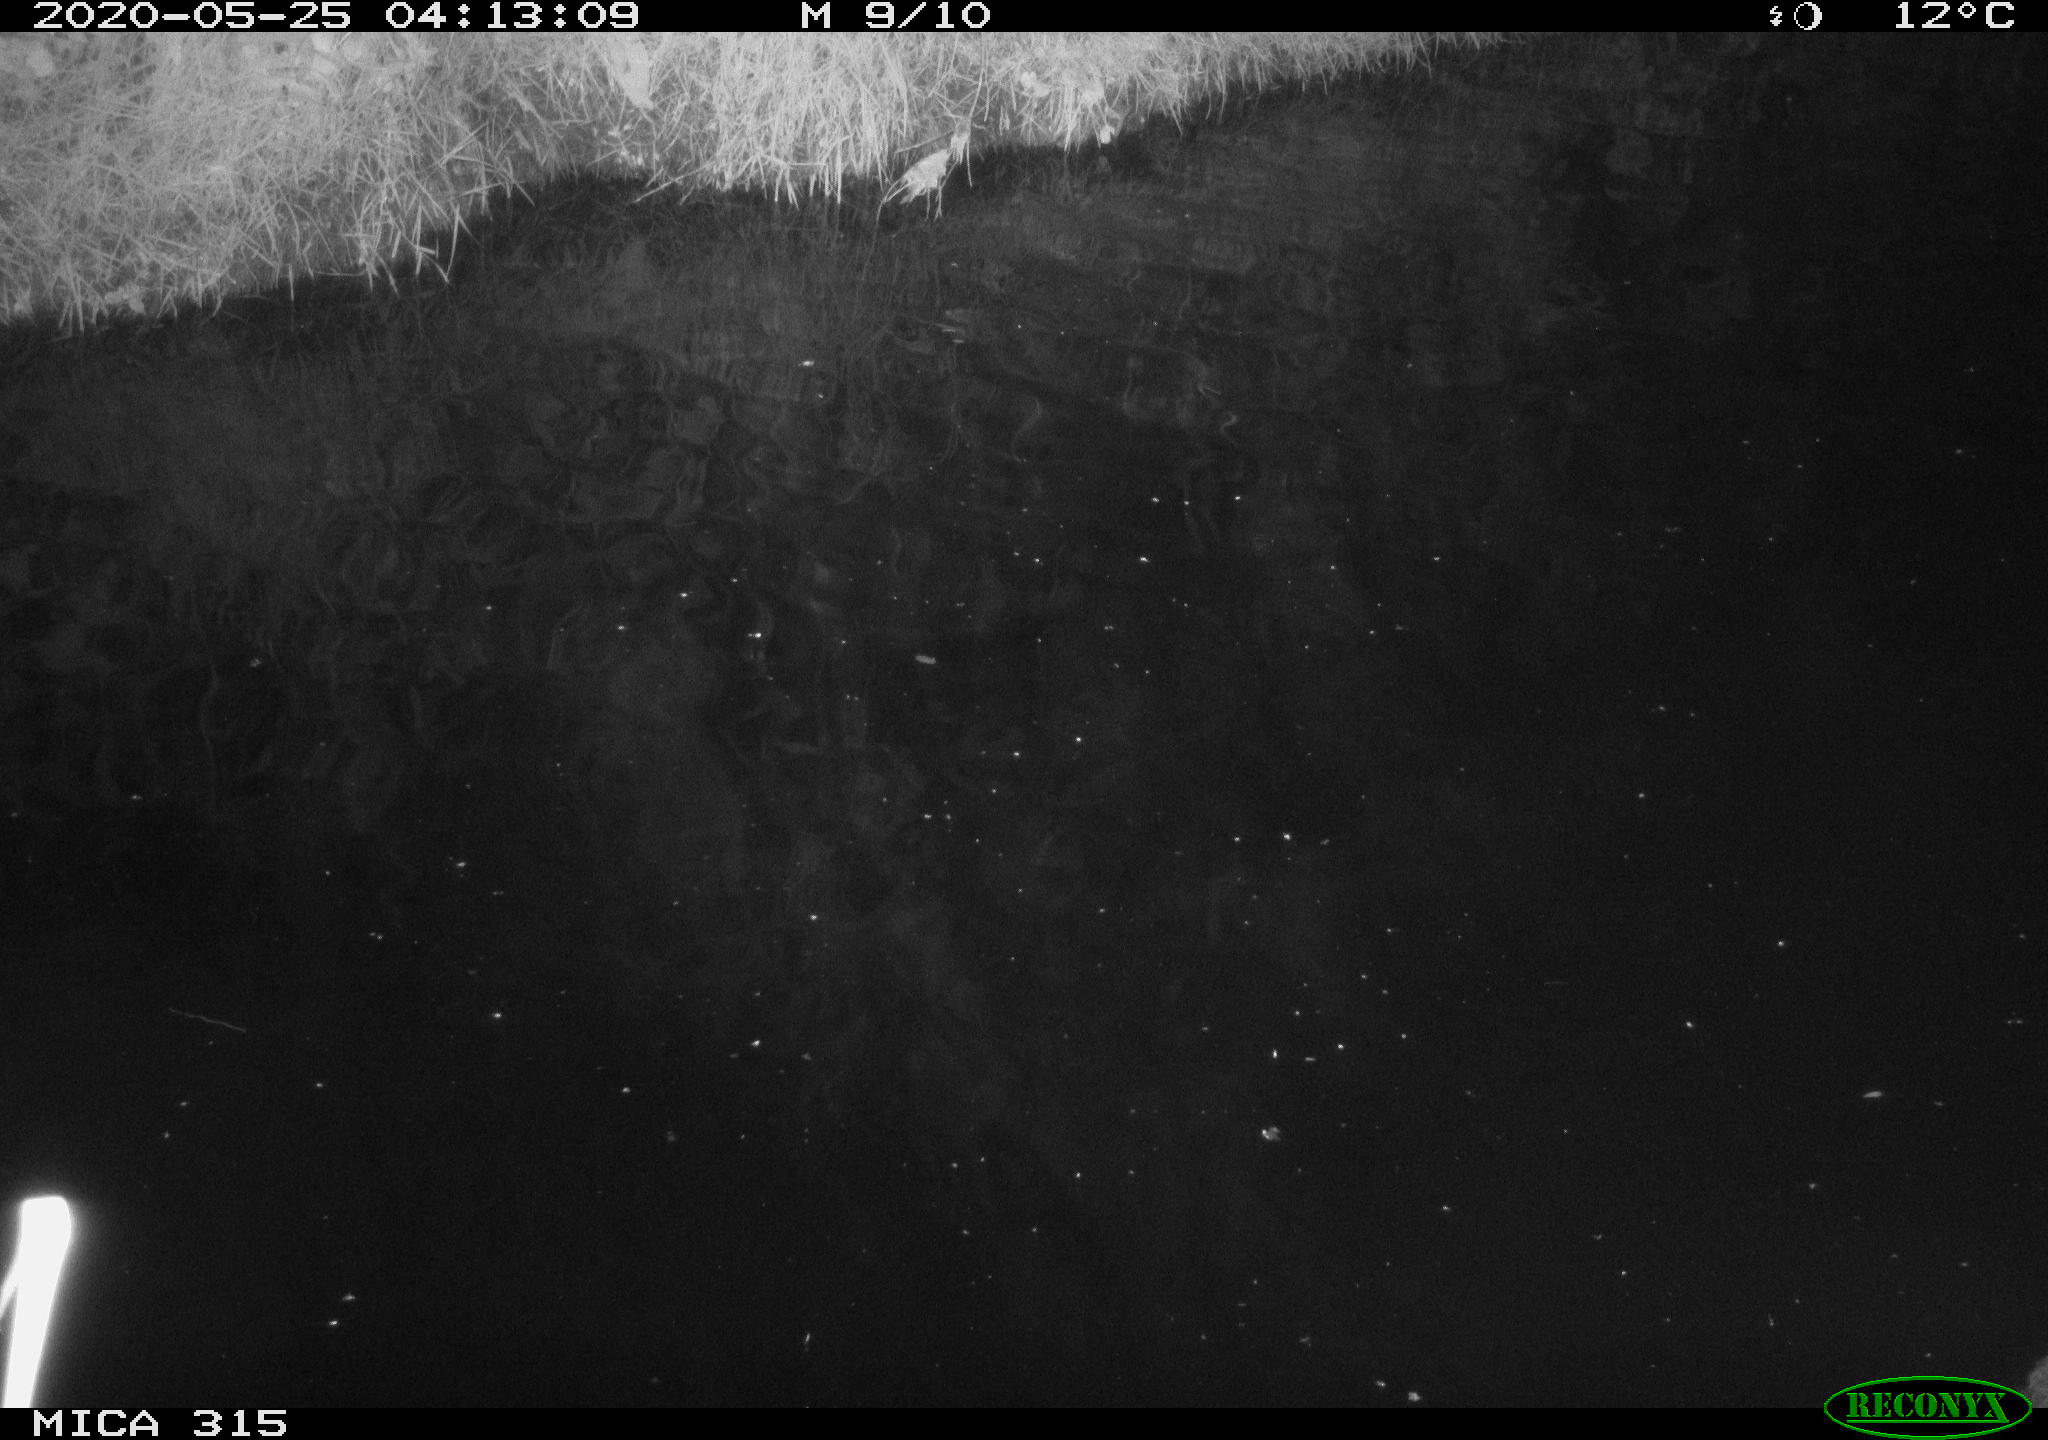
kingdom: Animalia
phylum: Chordata
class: Aves
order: Anseriformes
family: Anatidae
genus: Anas
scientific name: Anas platyrhynchos
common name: Mallard
